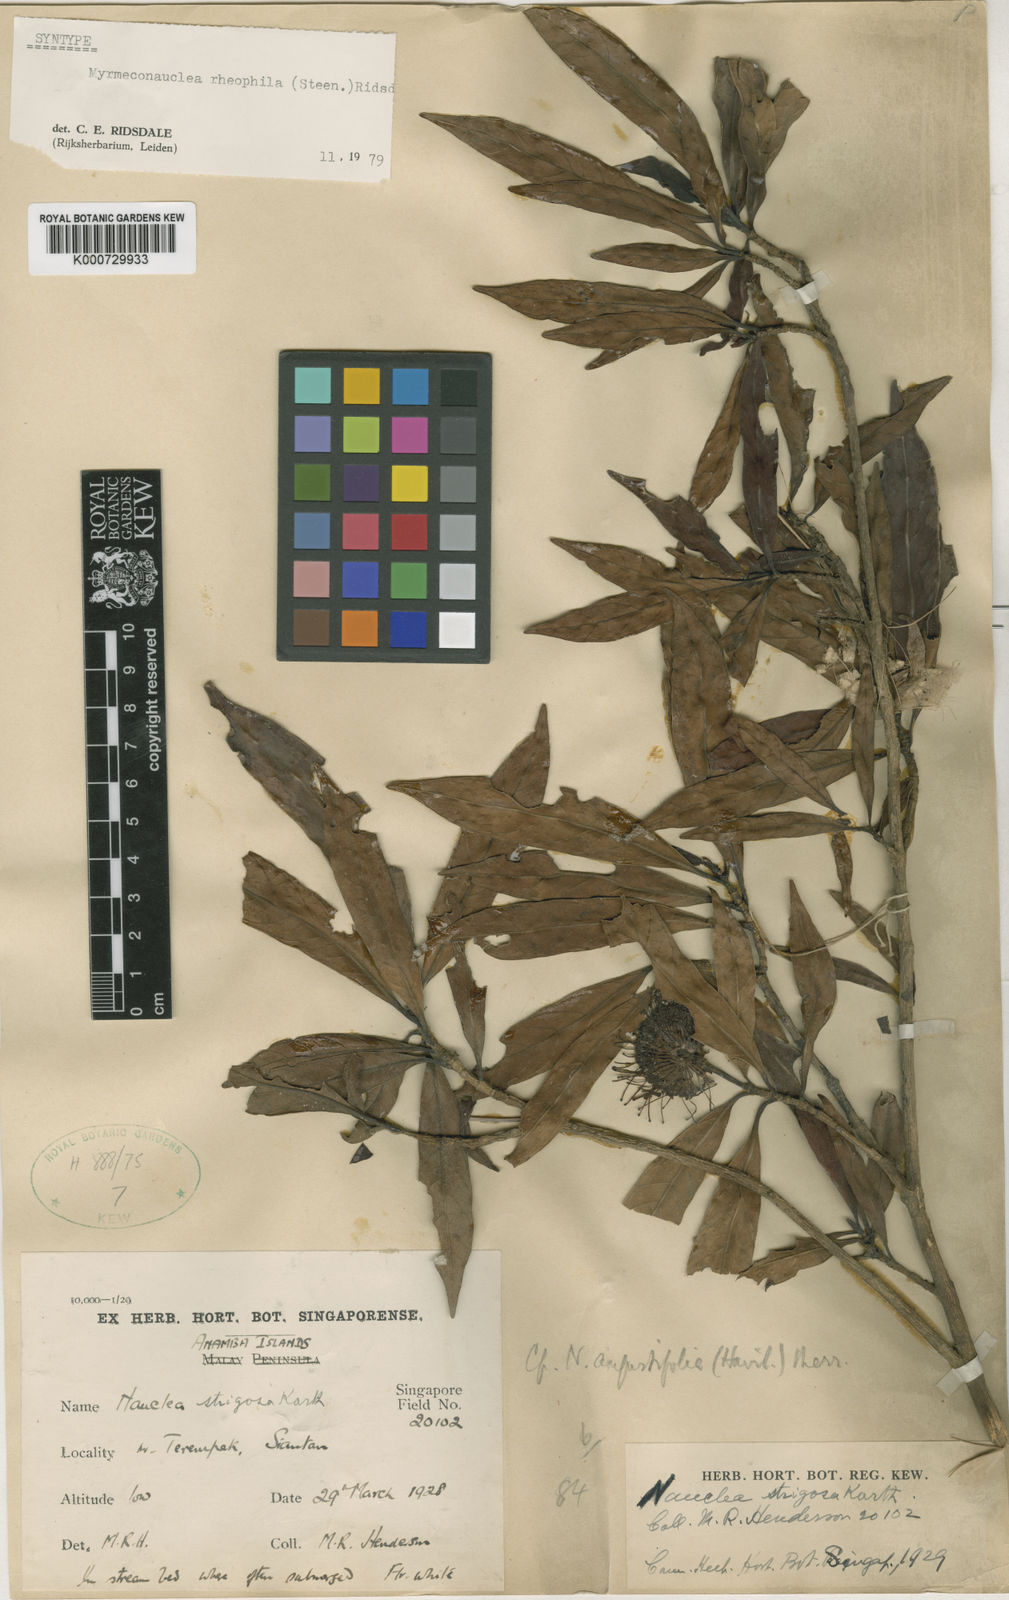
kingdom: Plantae
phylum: Tracheophyta
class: Magnoliopsida
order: Gentianales
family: Rubiaceae
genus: Myrmeconauclea
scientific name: Myrmeconauclea rheophila
